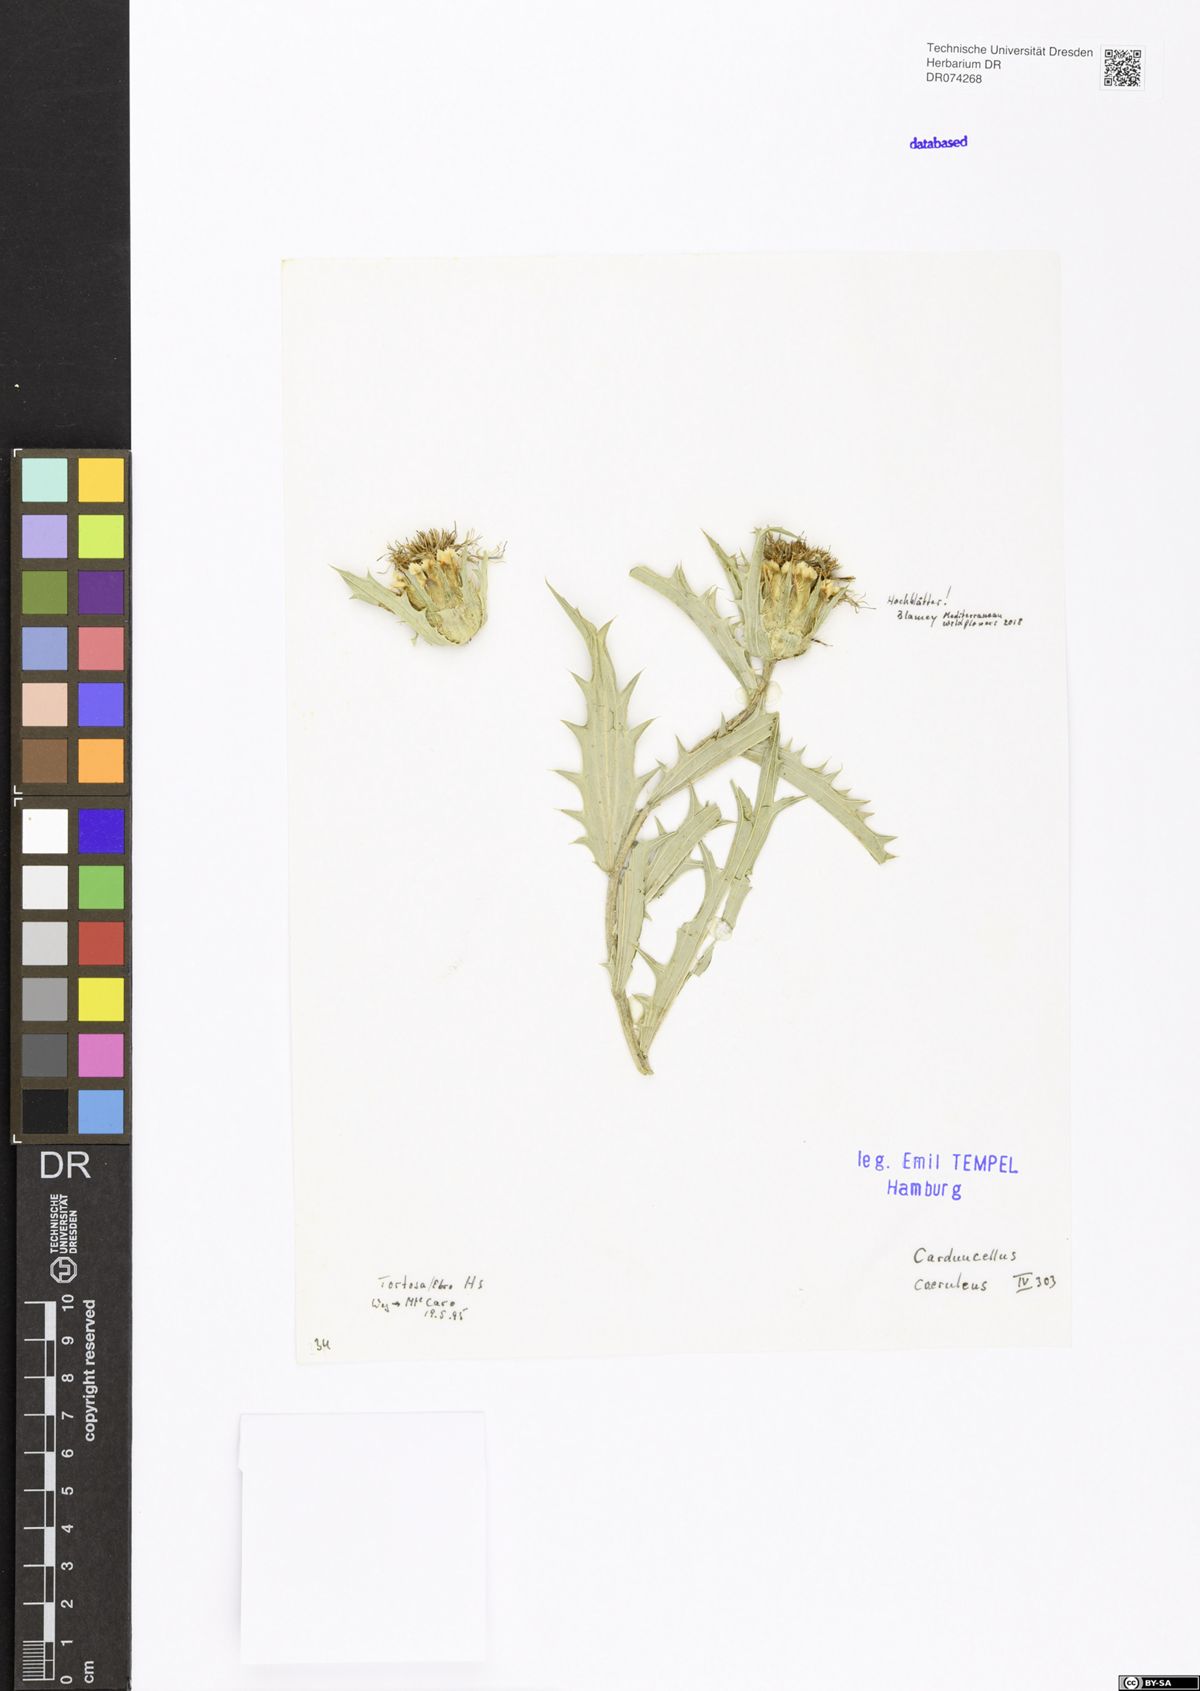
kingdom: Plantae
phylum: Tracheophyta
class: Magnoliopsida
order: Asterales
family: Asteraceae
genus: Carduncellus
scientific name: Carduncellus caeruleus
